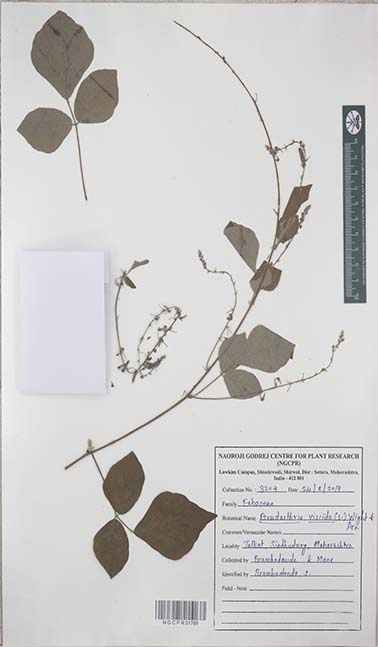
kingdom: Plantae
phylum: Tracheophyta
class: Magnoliopsida
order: Fabales
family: Fabaceae
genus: Pseudarthria
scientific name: Pseudarthria viscida
